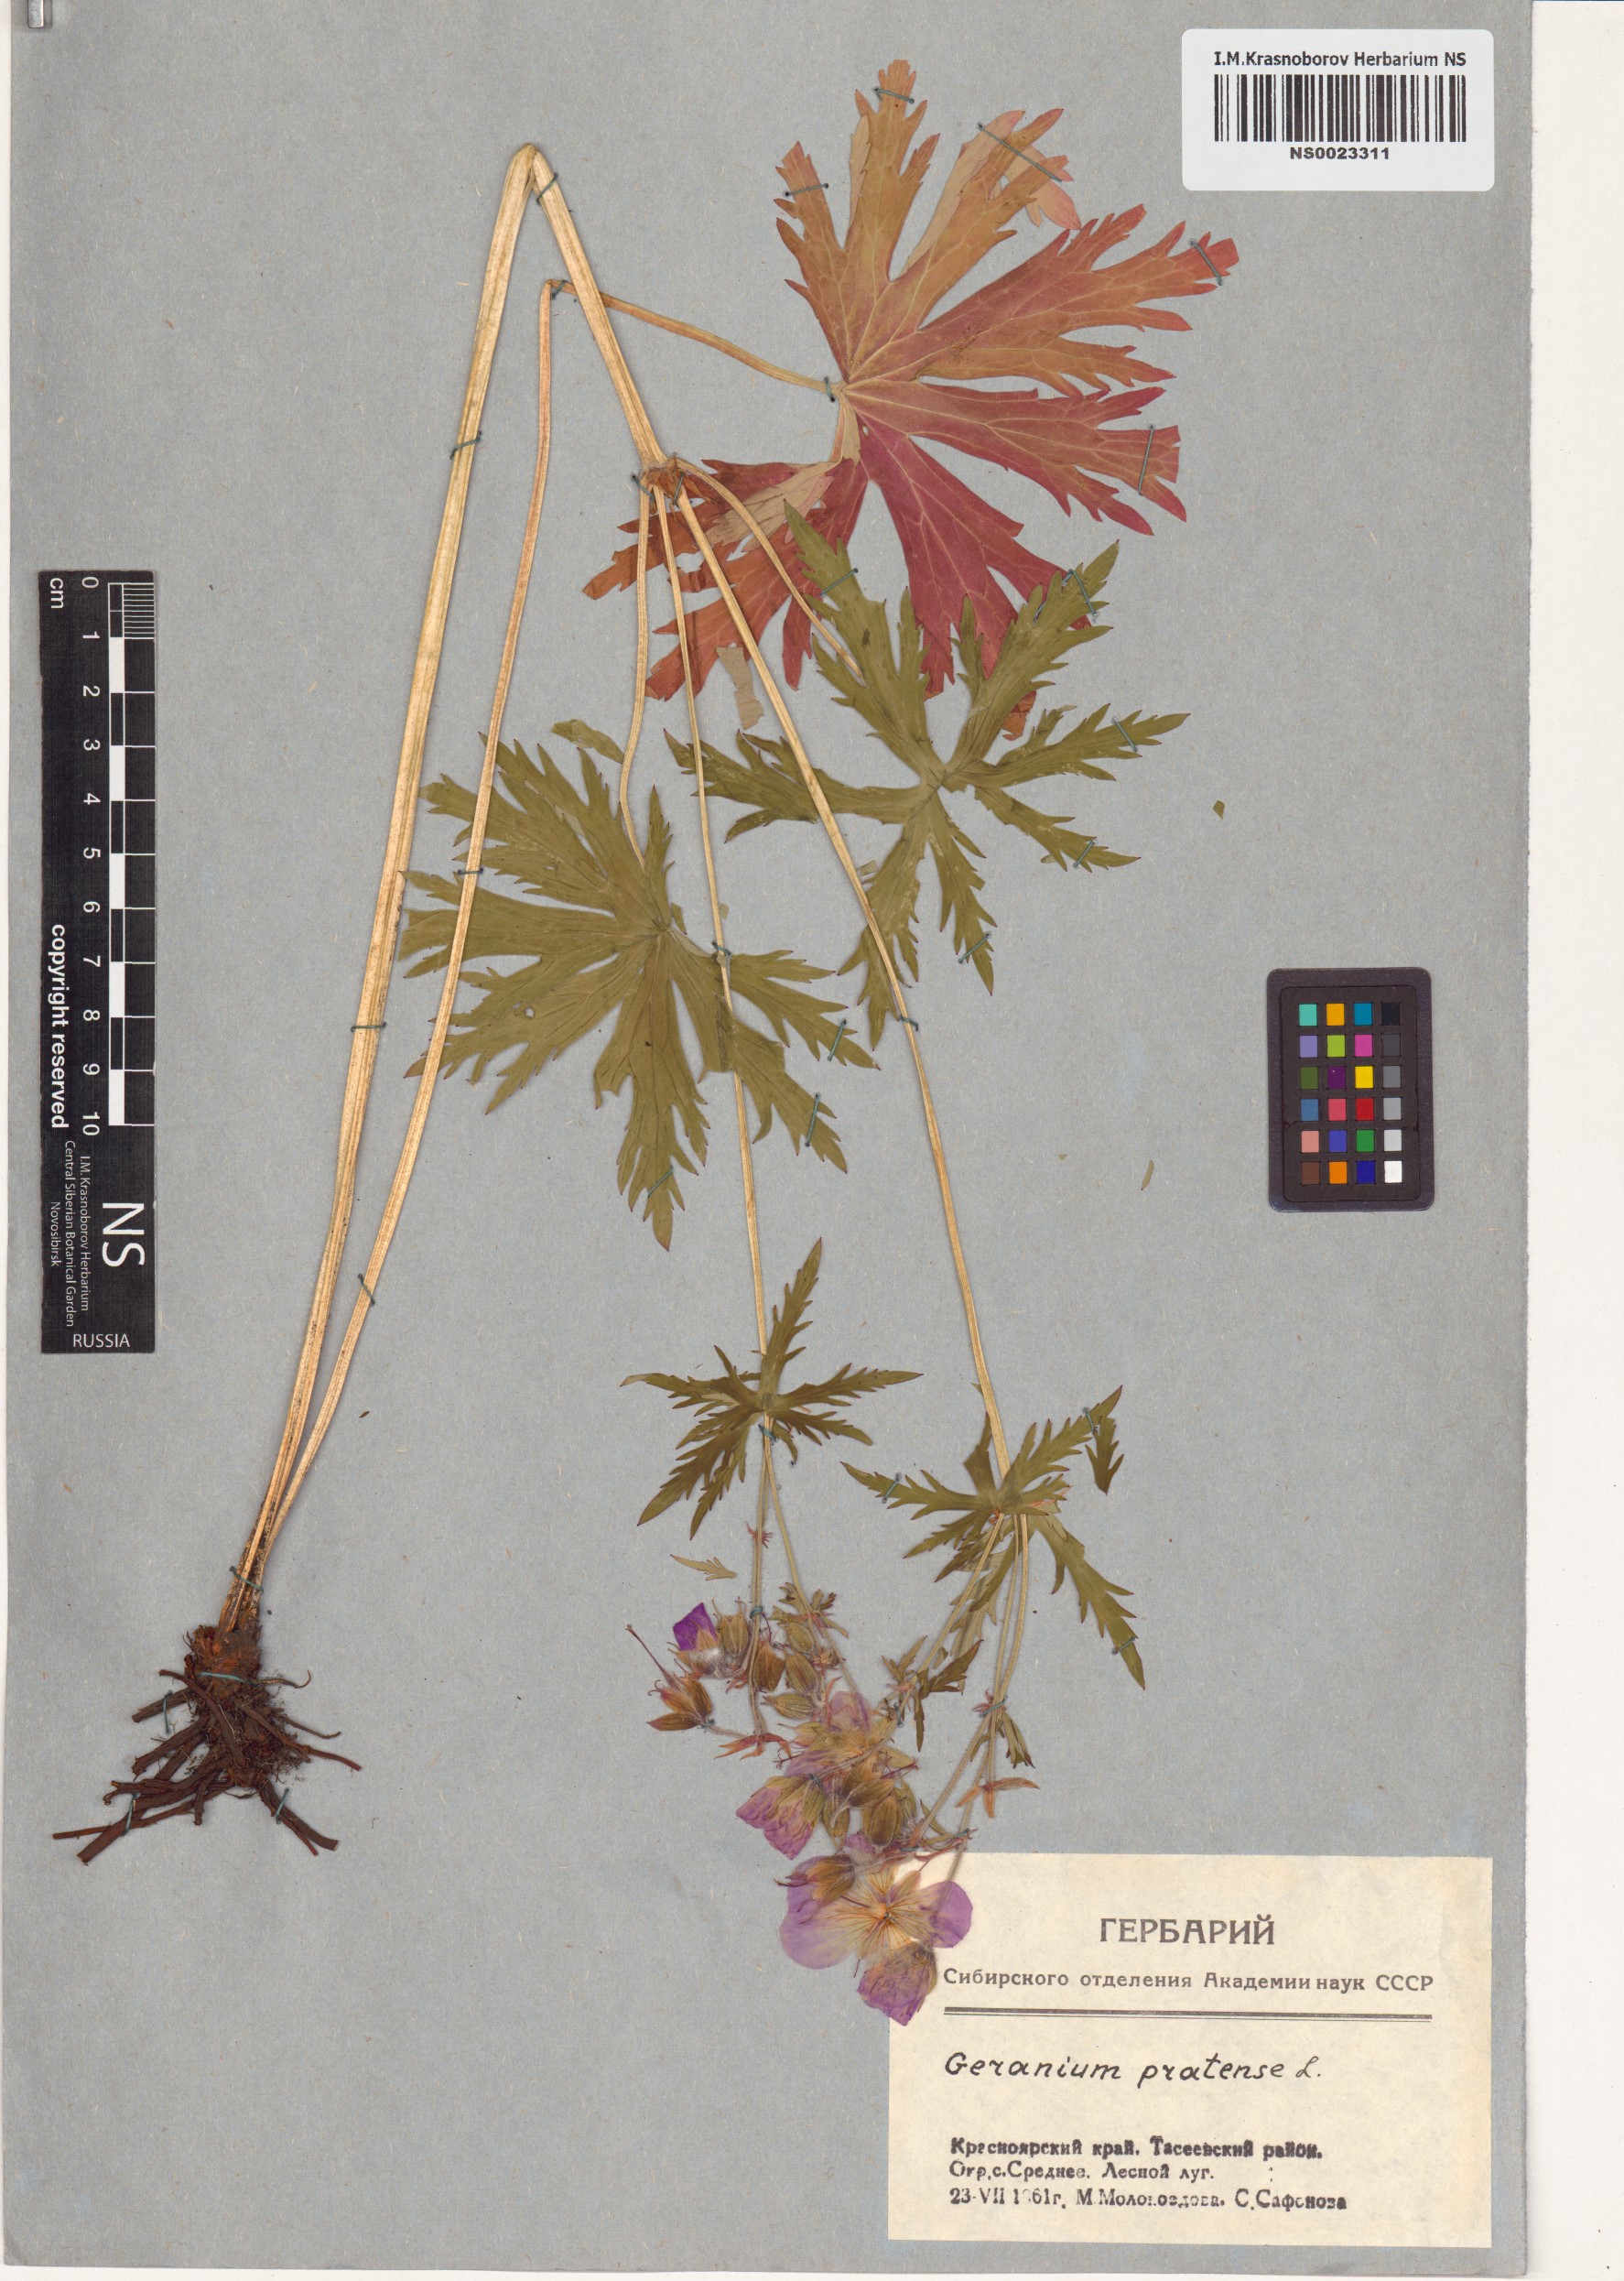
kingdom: Plantae
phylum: Tracheophyta
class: Magnoliopsida
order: Geraniales
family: Geraniaceae
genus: Geranium
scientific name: Geranium pratense
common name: Meadow crane's-bill
